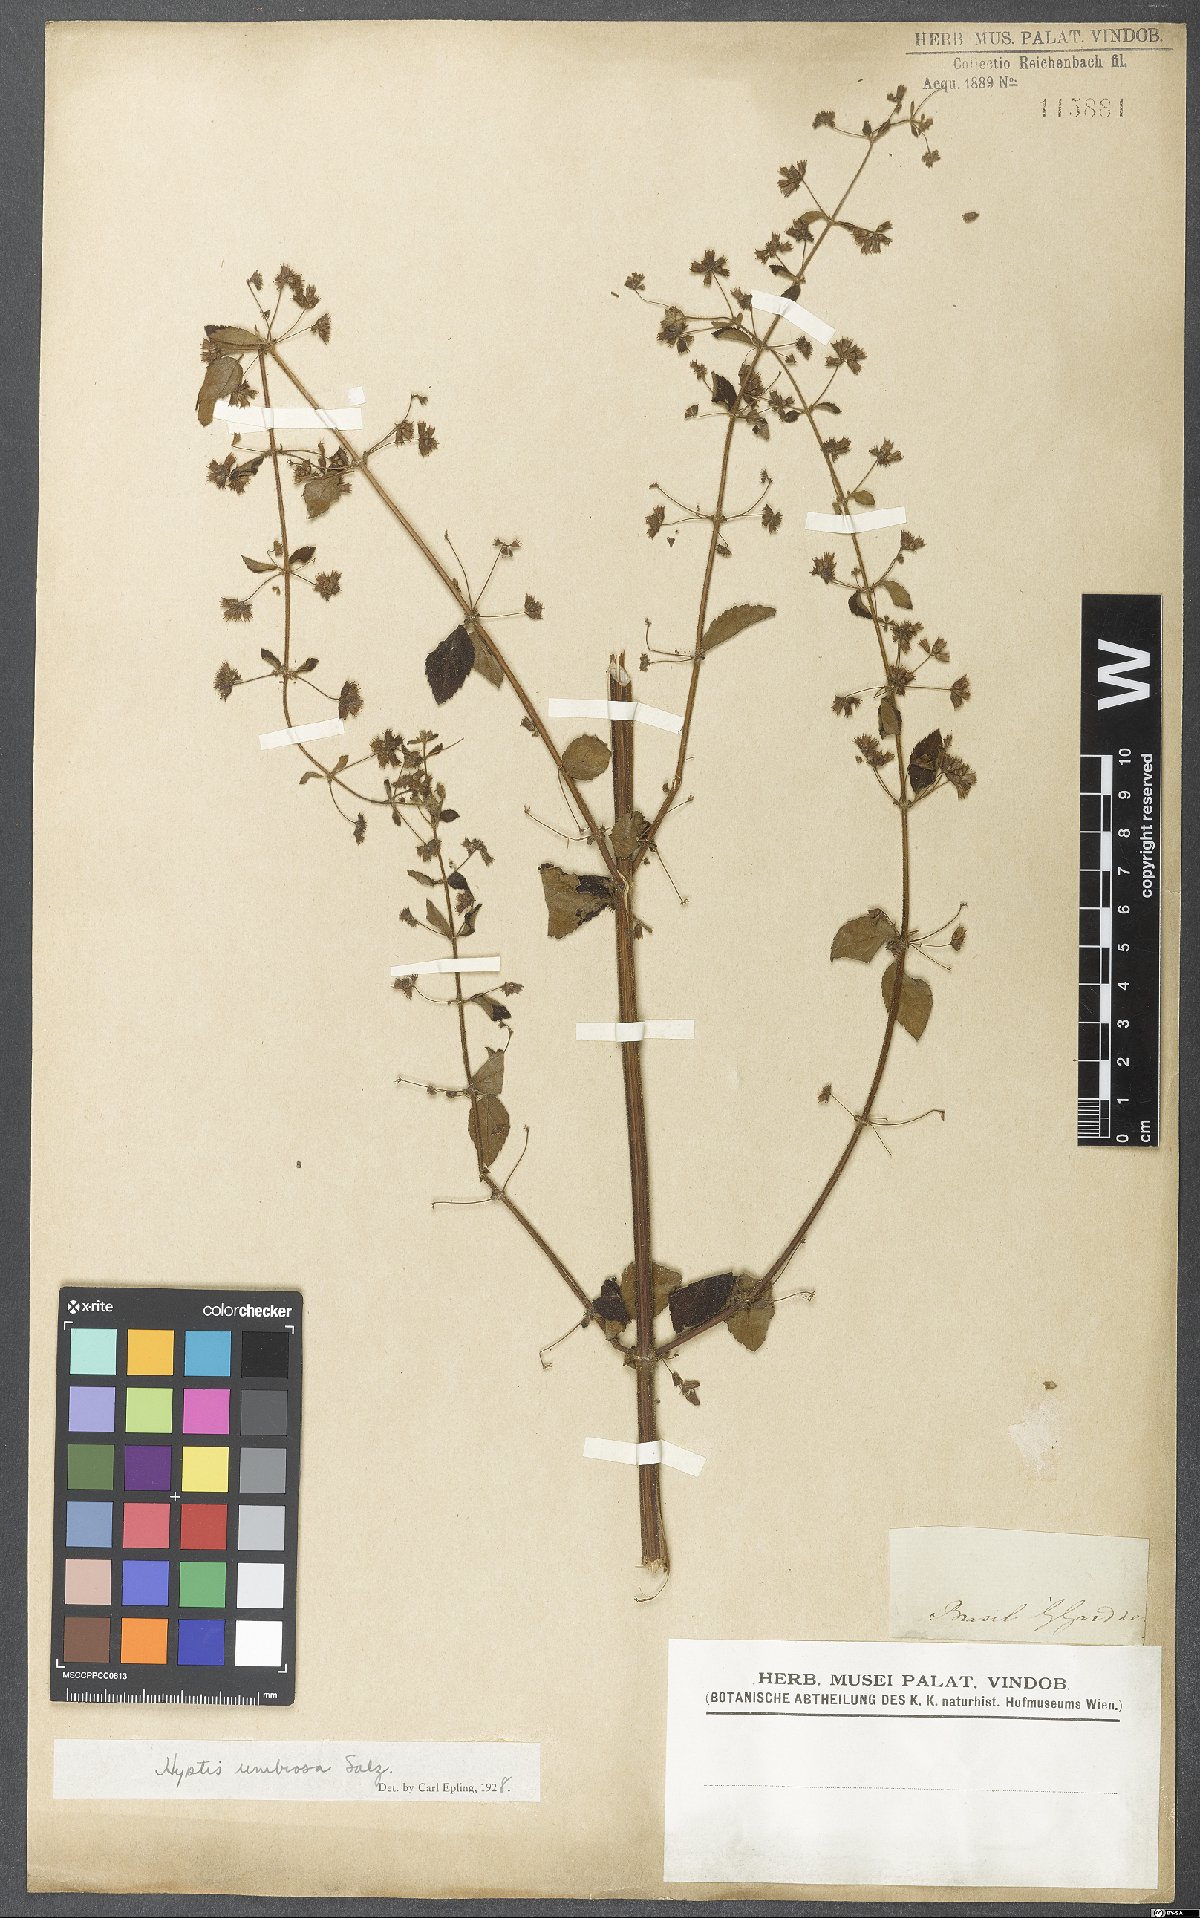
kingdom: Plantae
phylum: Tracheophyta
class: Magnoliopsida
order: Lamiales
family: Lamiaceae
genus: Mesosphaerum
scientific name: Mesosphaerum sidifolium
